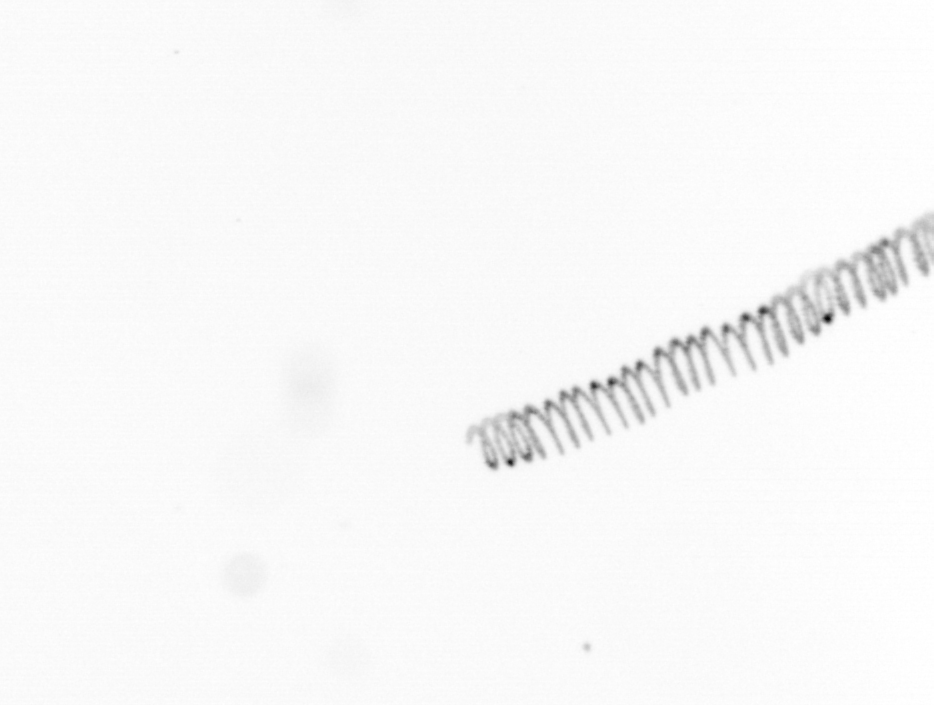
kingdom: Chromista
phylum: Ochrophyta
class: Bacillariophyceae
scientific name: Bacillariophyceae
